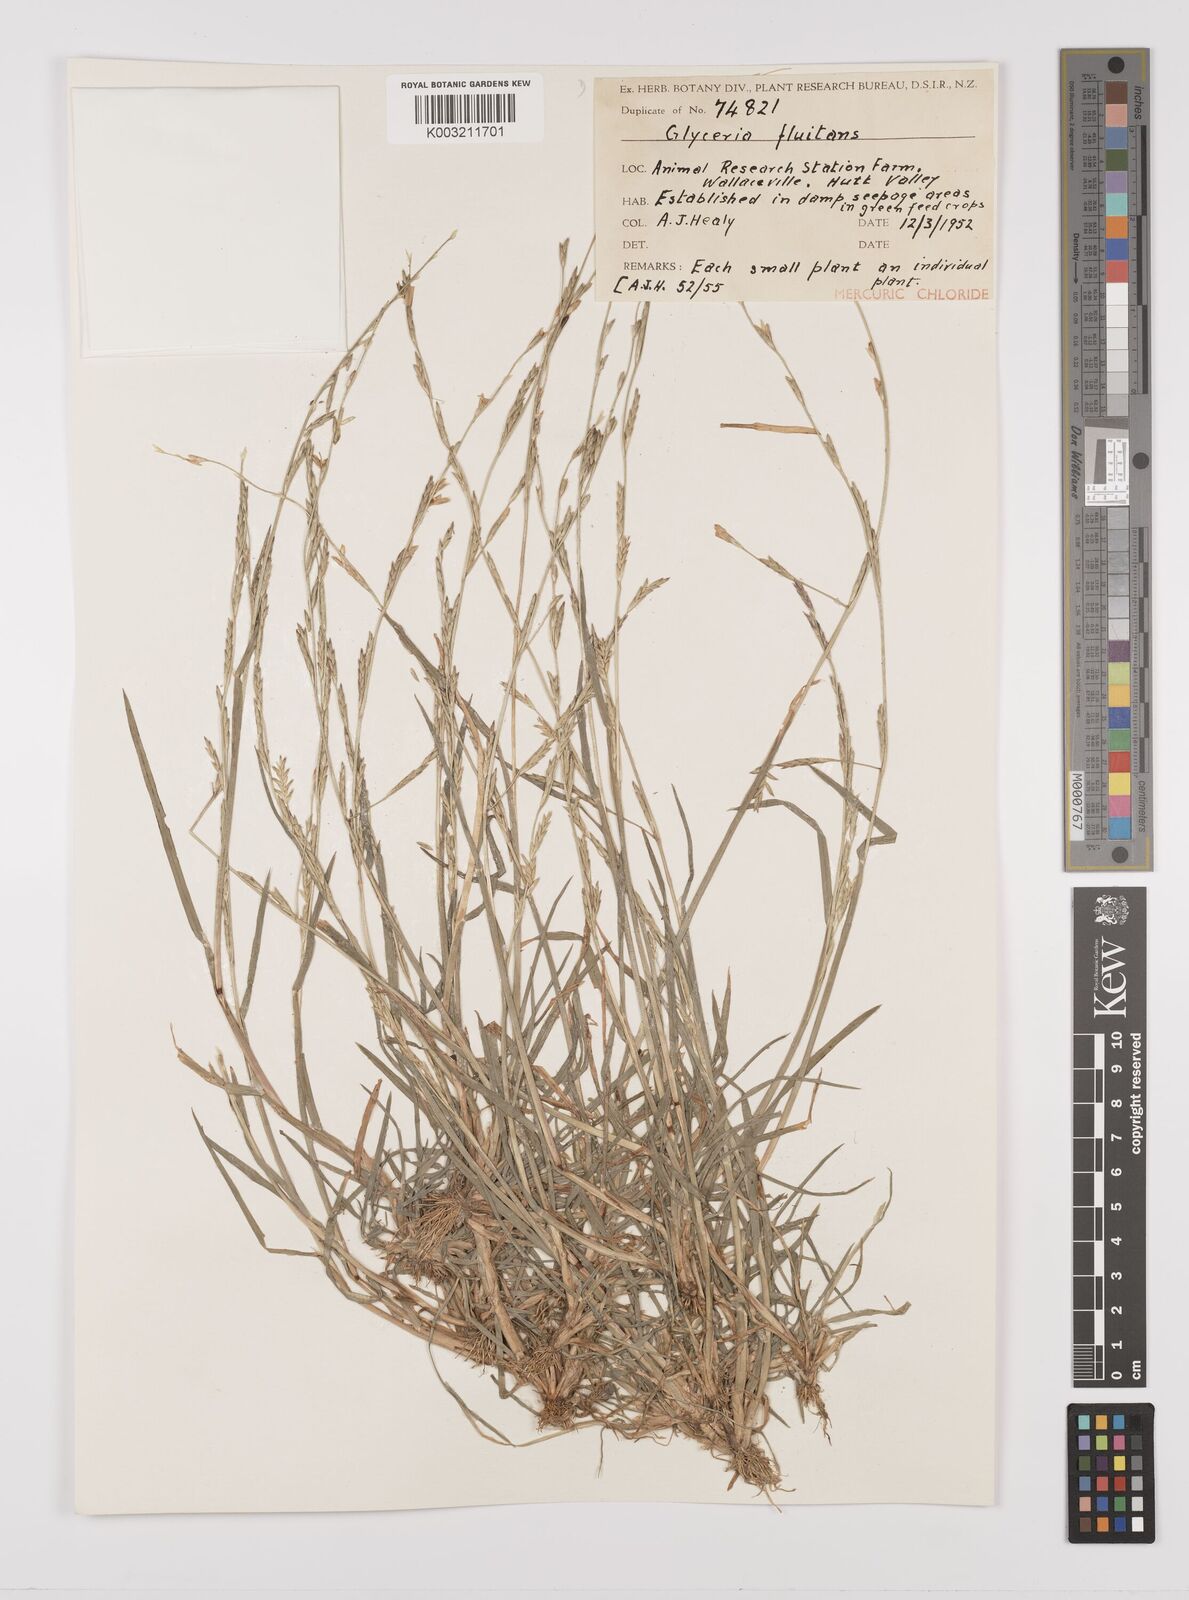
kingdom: Plantae
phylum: Tracheophyta
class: Liliopsida
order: Poales
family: Poaceae
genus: Glyceria
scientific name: Glyceria fluitans
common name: Floating sweet-grass
